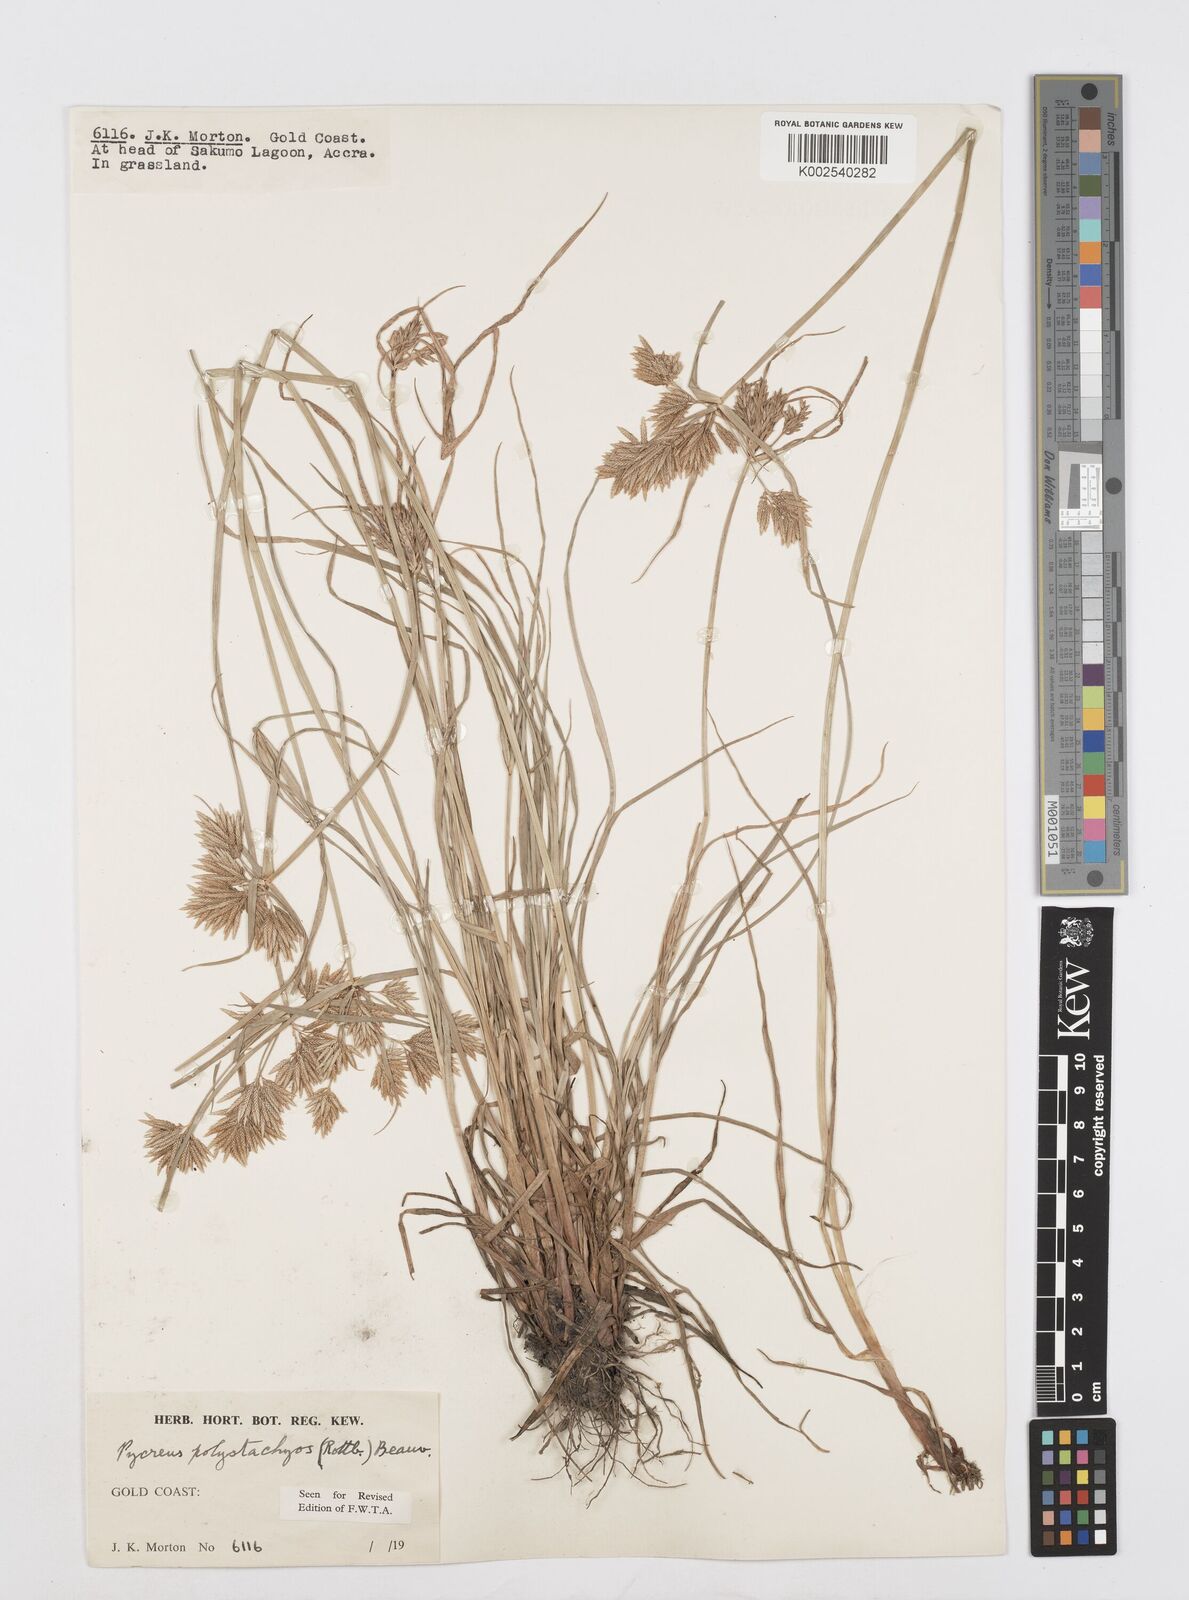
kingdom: Plantae
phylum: Tracheophyta
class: Liliopsida
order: Poales
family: Cyperaceae
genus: Cyperus
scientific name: Cyperus polystachyos
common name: Bunchy flat sedge
